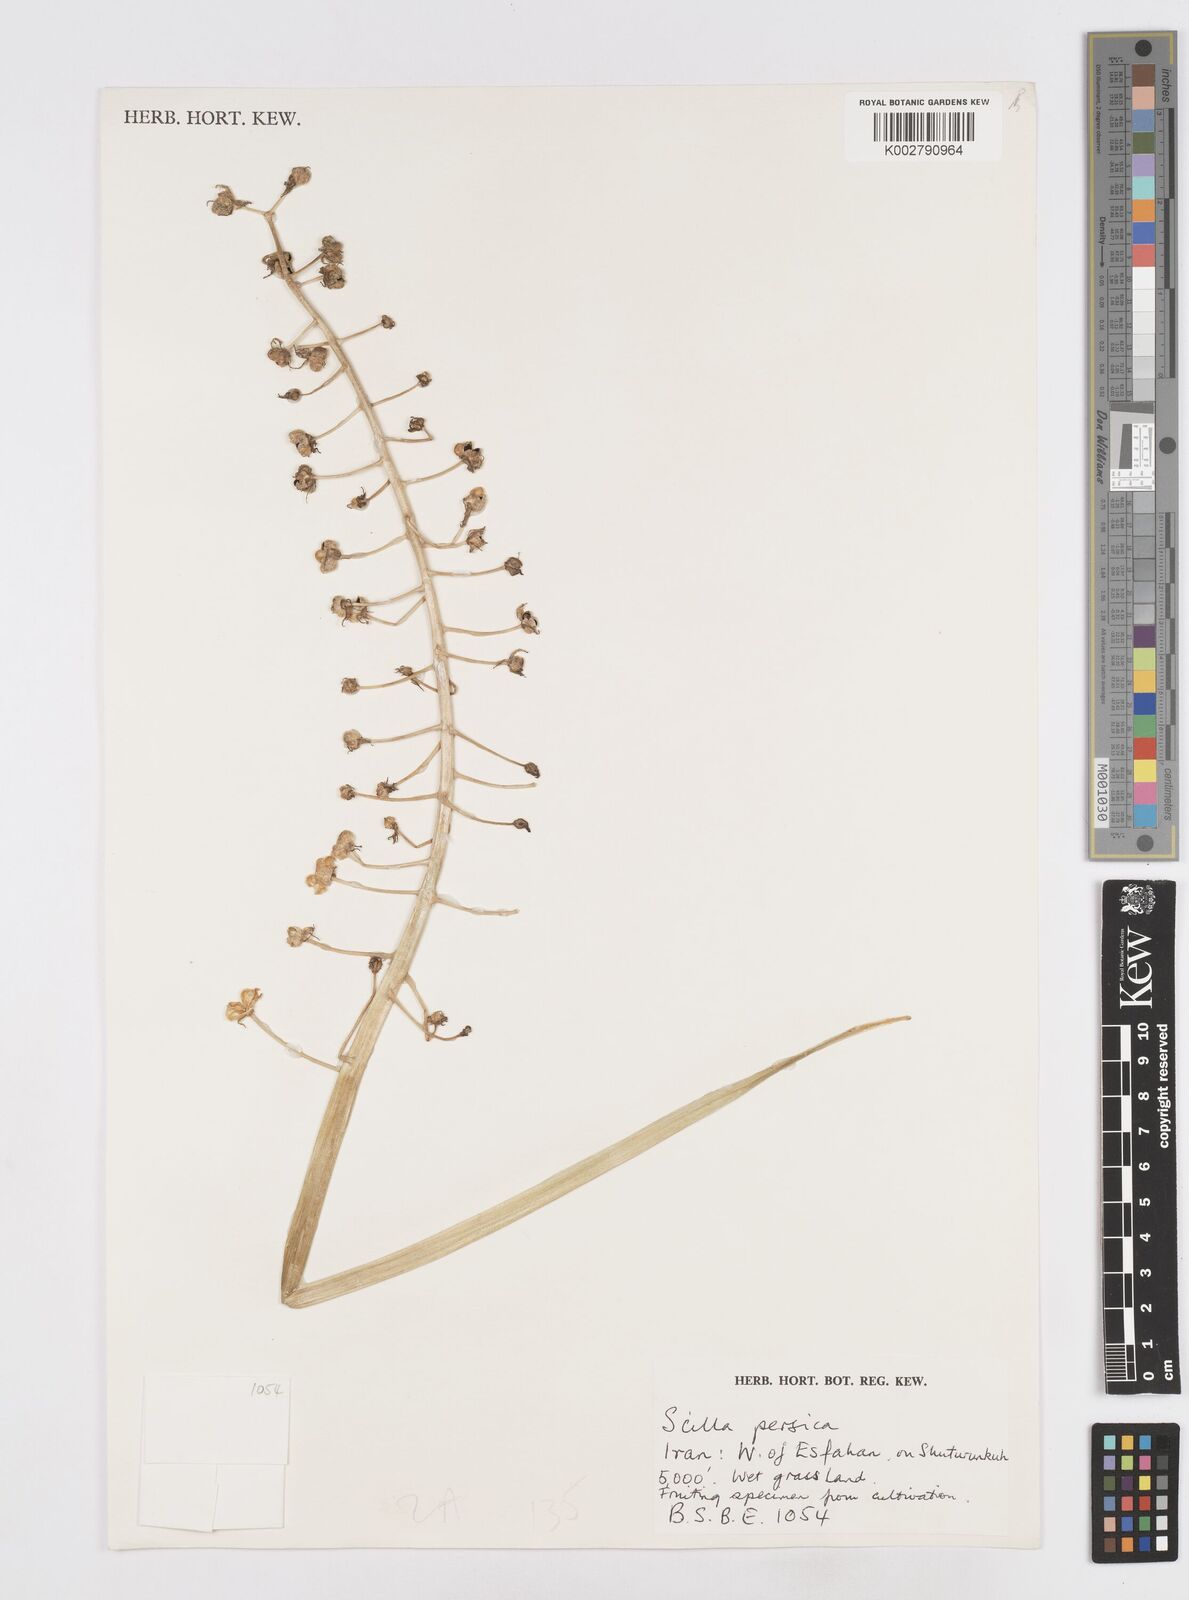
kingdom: Plantae
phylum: Tracheophyta
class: Liliopsida
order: Asparagales
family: Asparagaceae
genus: Zagrosia
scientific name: Zagrosia persica
